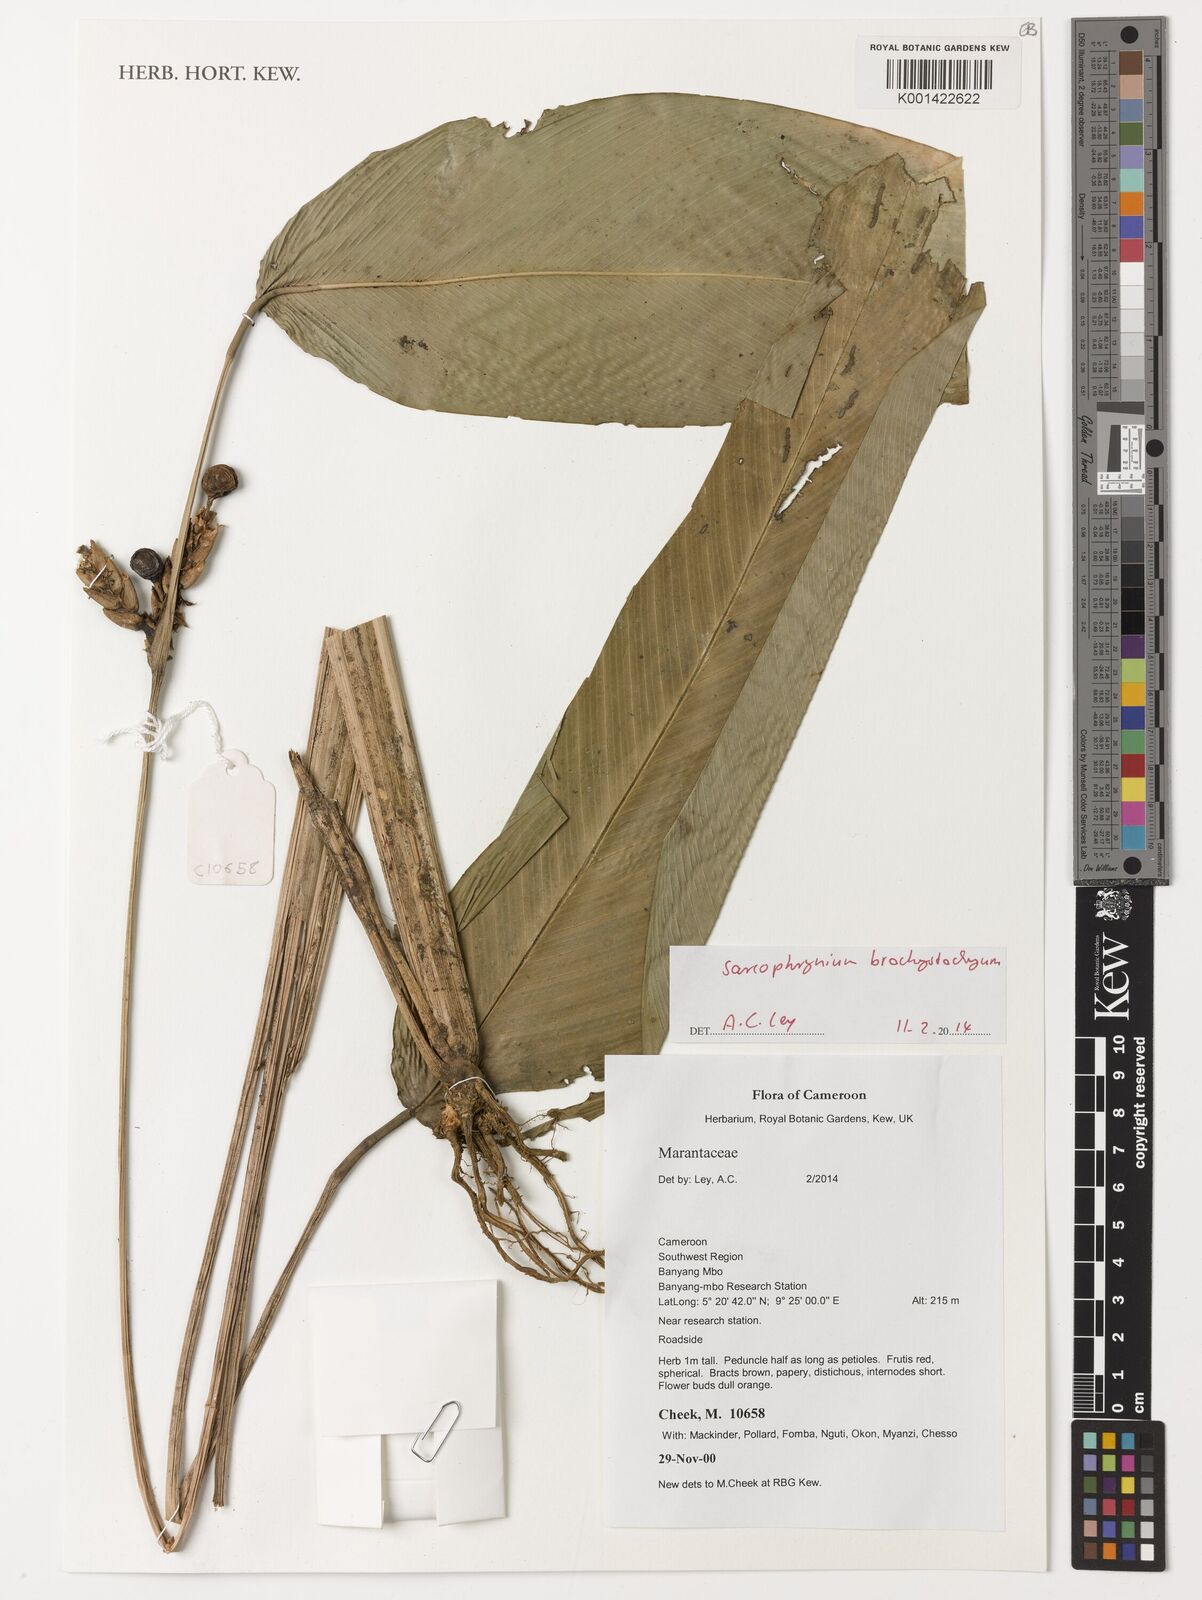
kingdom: Plantae
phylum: Tracheophyta
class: Liliopsida
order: Zingiberales
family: Marantaceae
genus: Sarcophrynium
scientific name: Sarcophrynium brachystachyum
